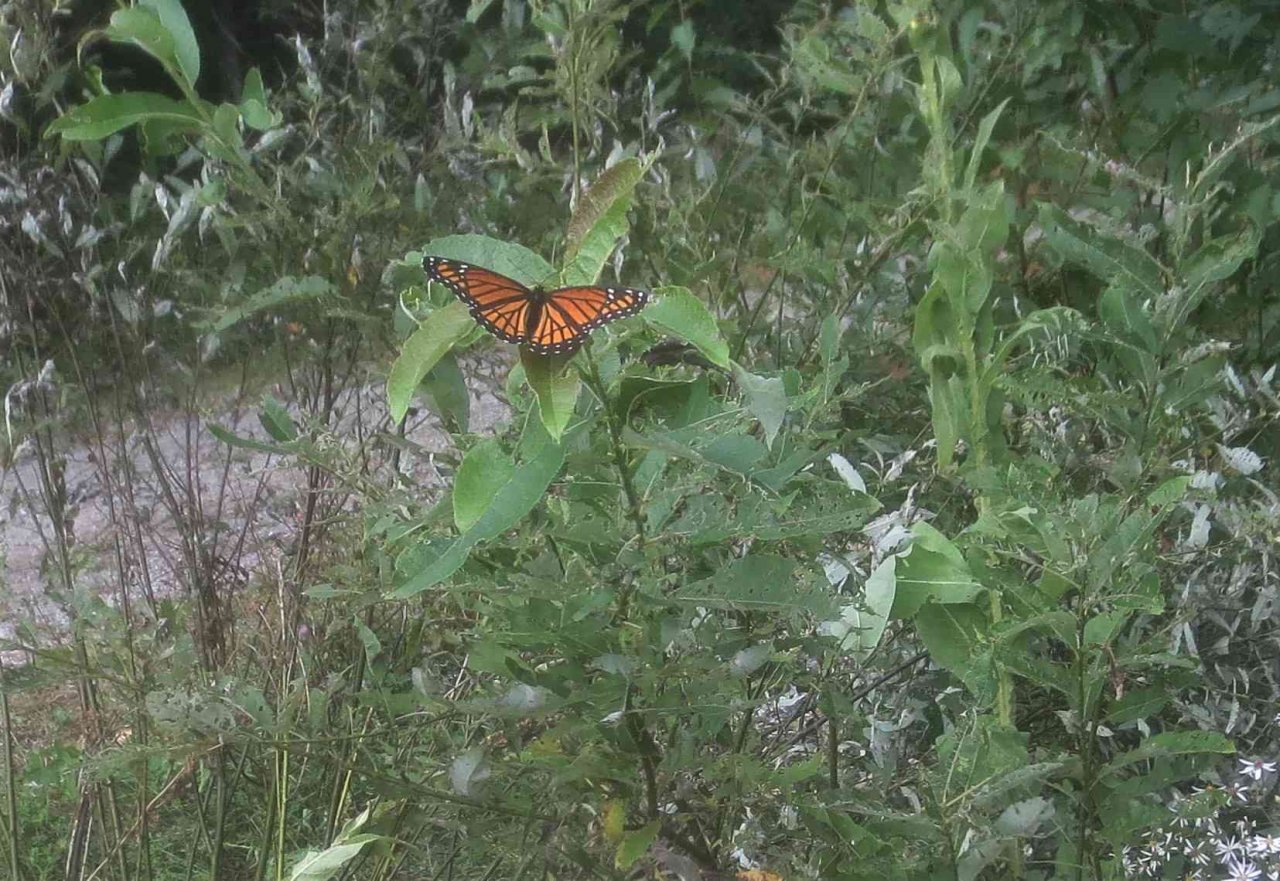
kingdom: Animalia
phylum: Arthropoda
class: Insecta
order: Lepidoptera
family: Nymphalidae
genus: Limenitis
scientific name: Limenitis archippus
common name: Viceroy
